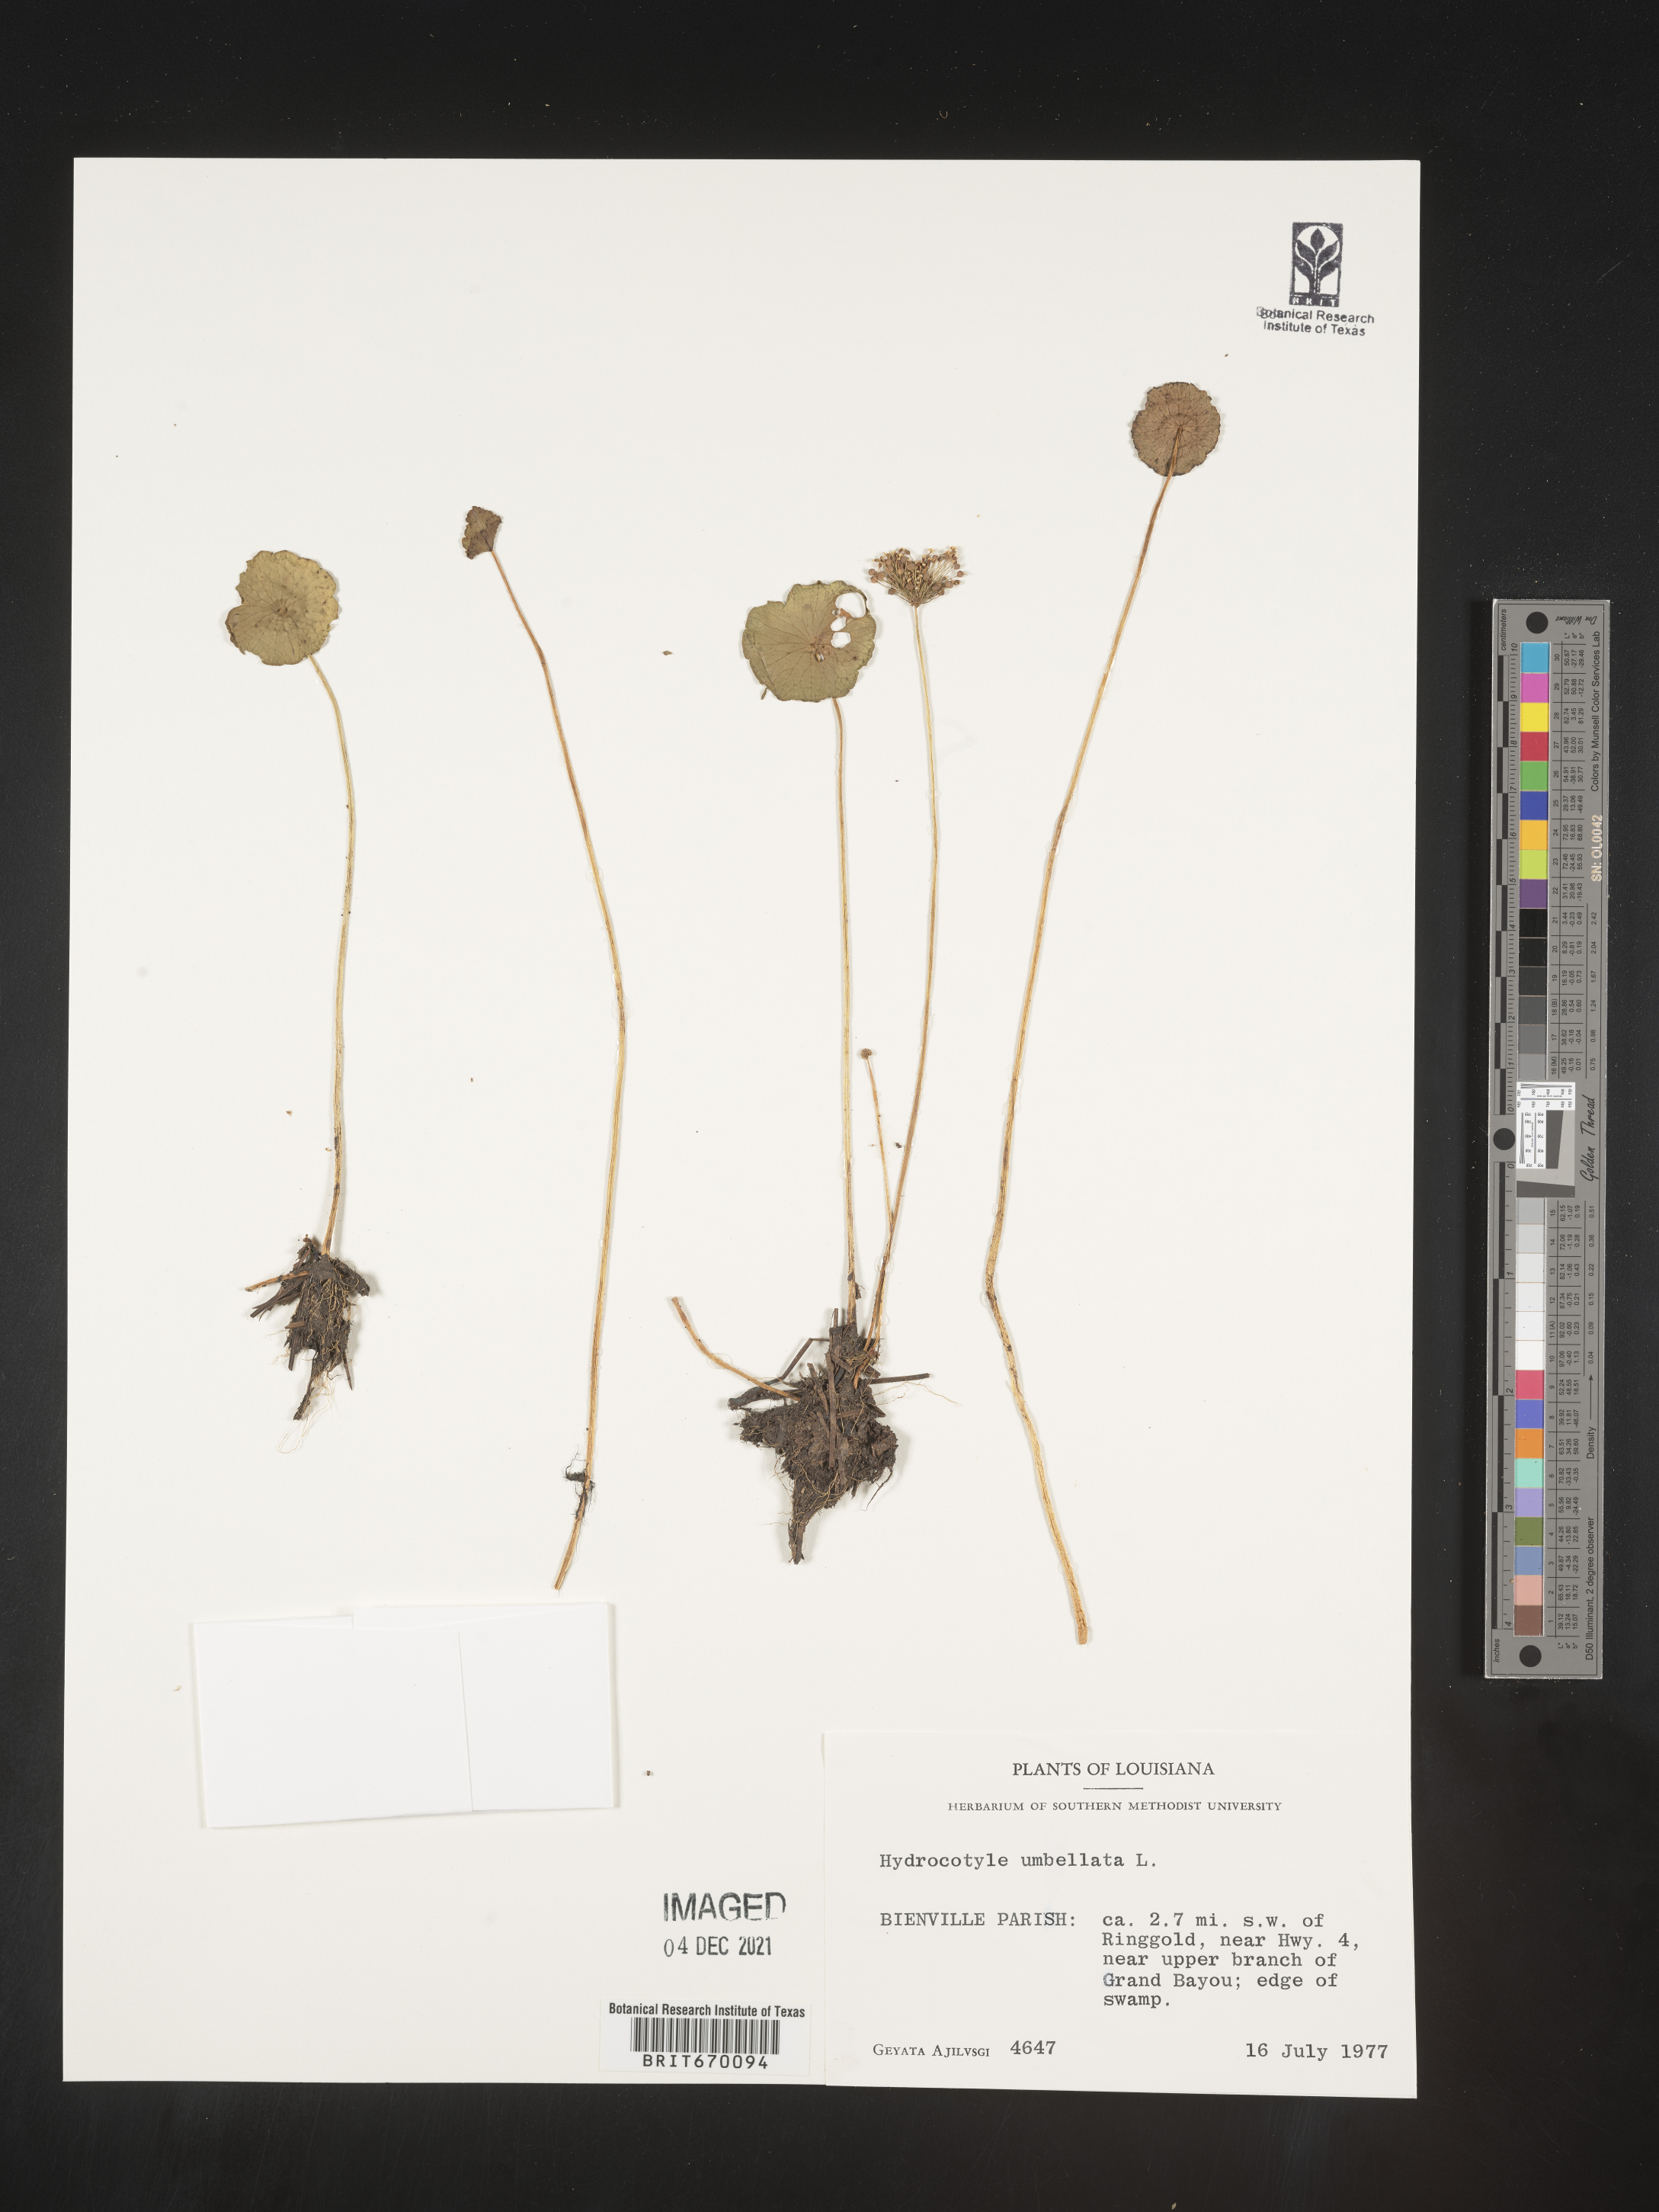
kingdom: Plantae
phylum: Tracheophyta
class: Magnoliopsida
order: Apiales
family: Araliaceae
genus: Hydrocotyle
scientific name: Hydrocotyle umbellata
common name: Water pennywort
